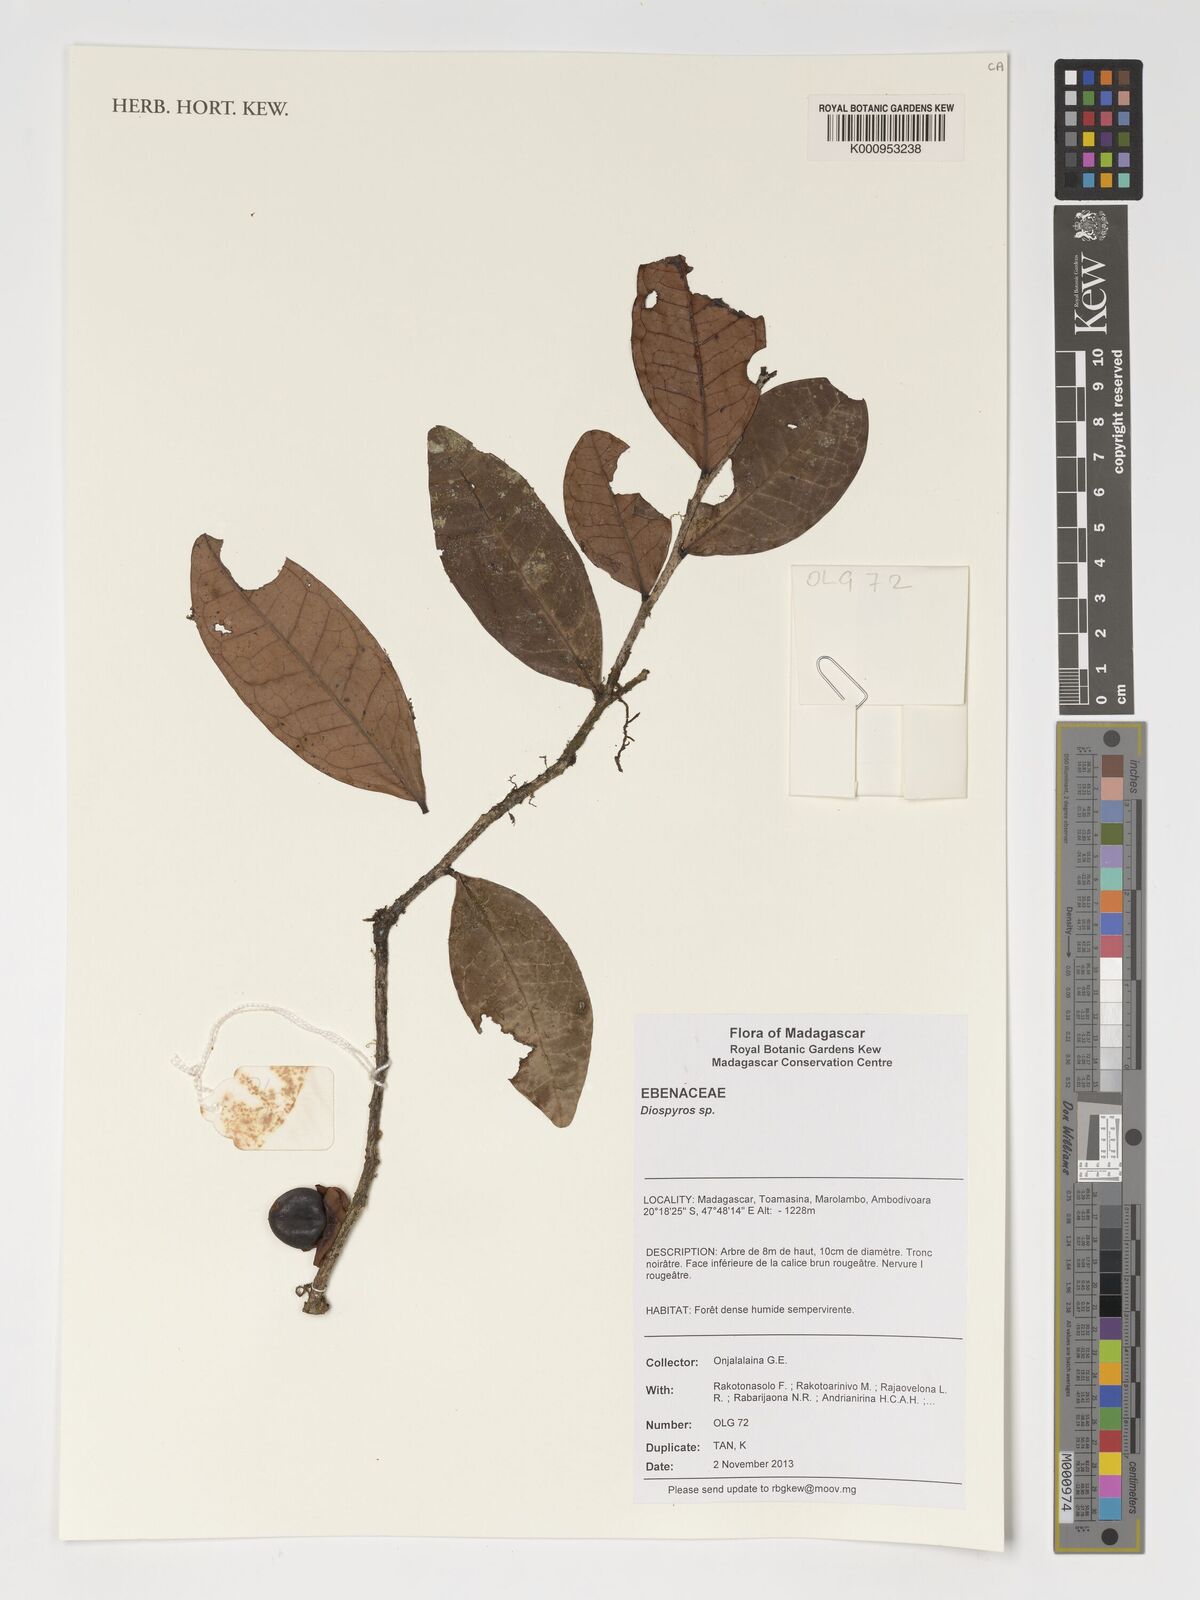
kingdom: Plantae
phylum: Tracheophyta
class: Magnoliopsida
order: Ericales
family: Ebenaceae
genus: Diospyros
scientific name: Diospyros
